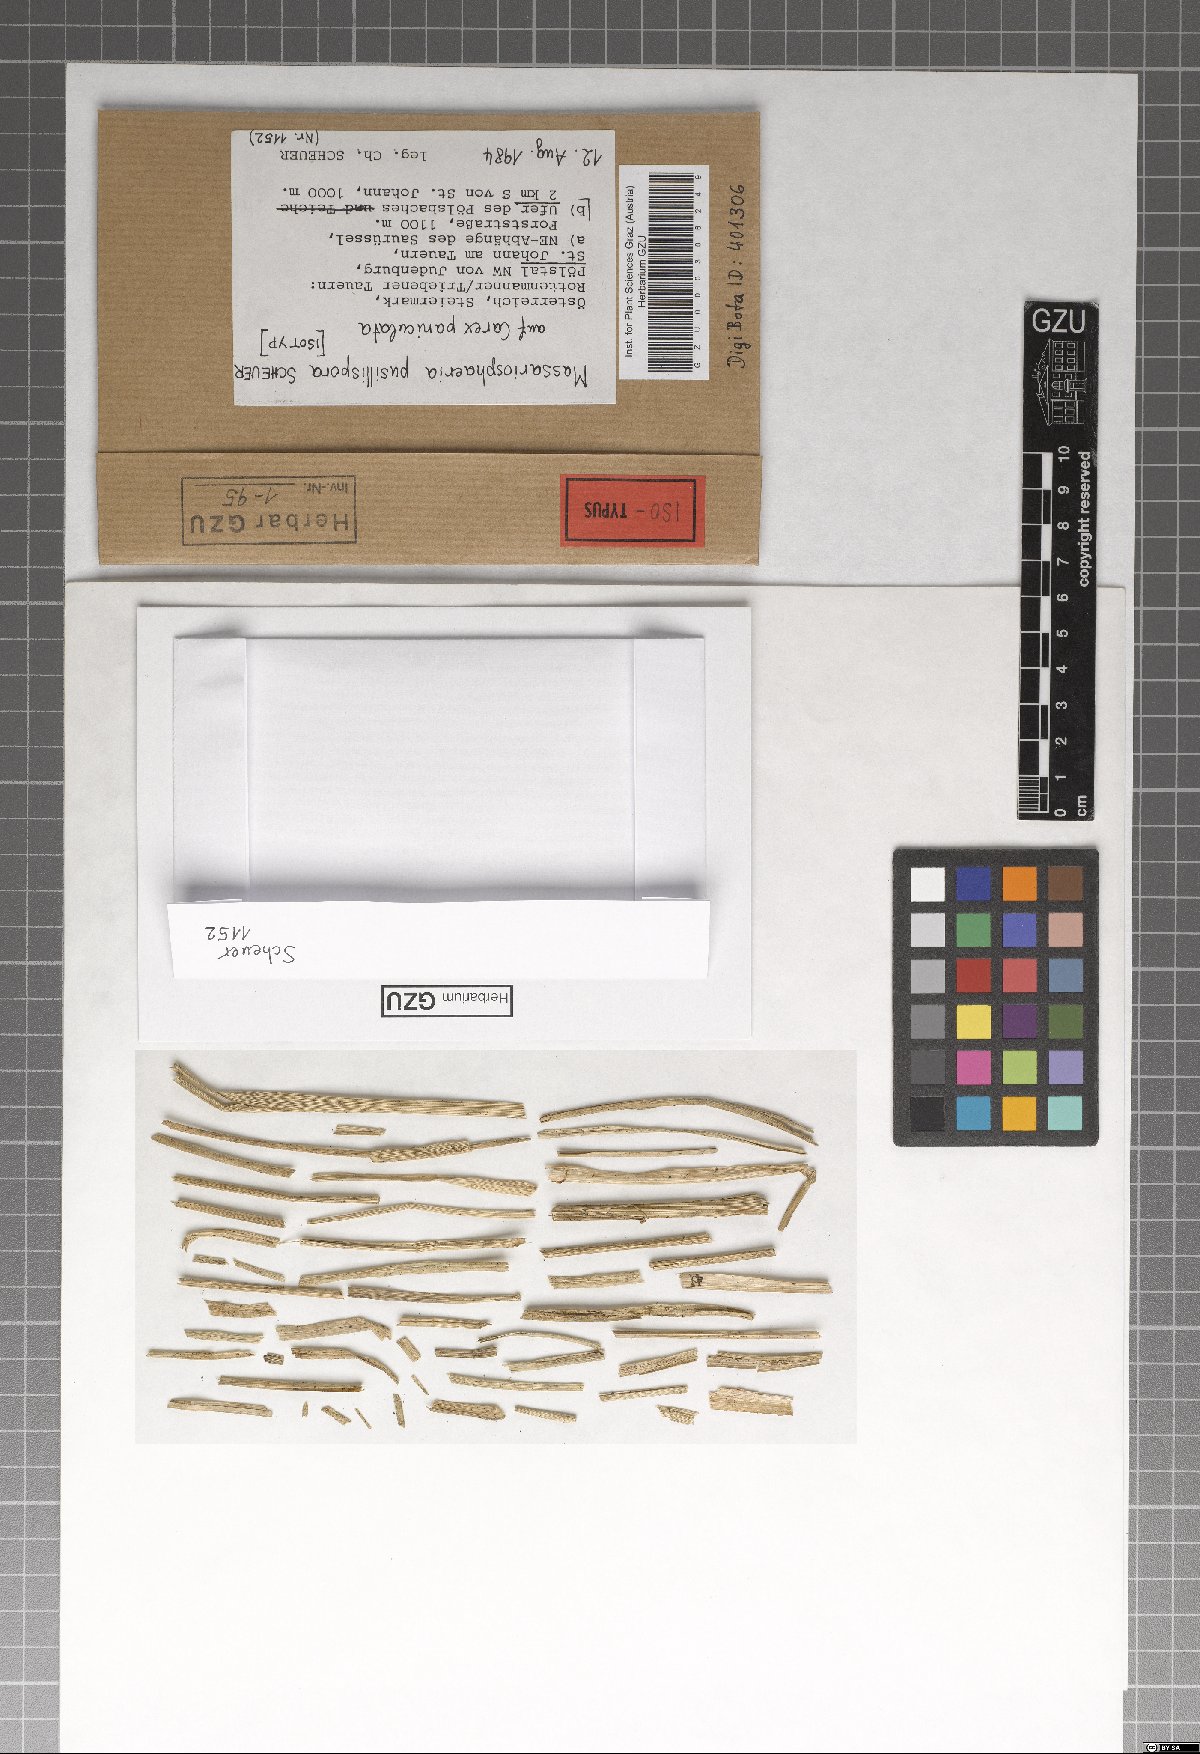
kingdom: Fungi
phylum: Ascomycota
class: Dothideomycetes
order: Pleosporales
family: Massarinaceae
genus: Massarina
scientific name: Massarina pusillispora
